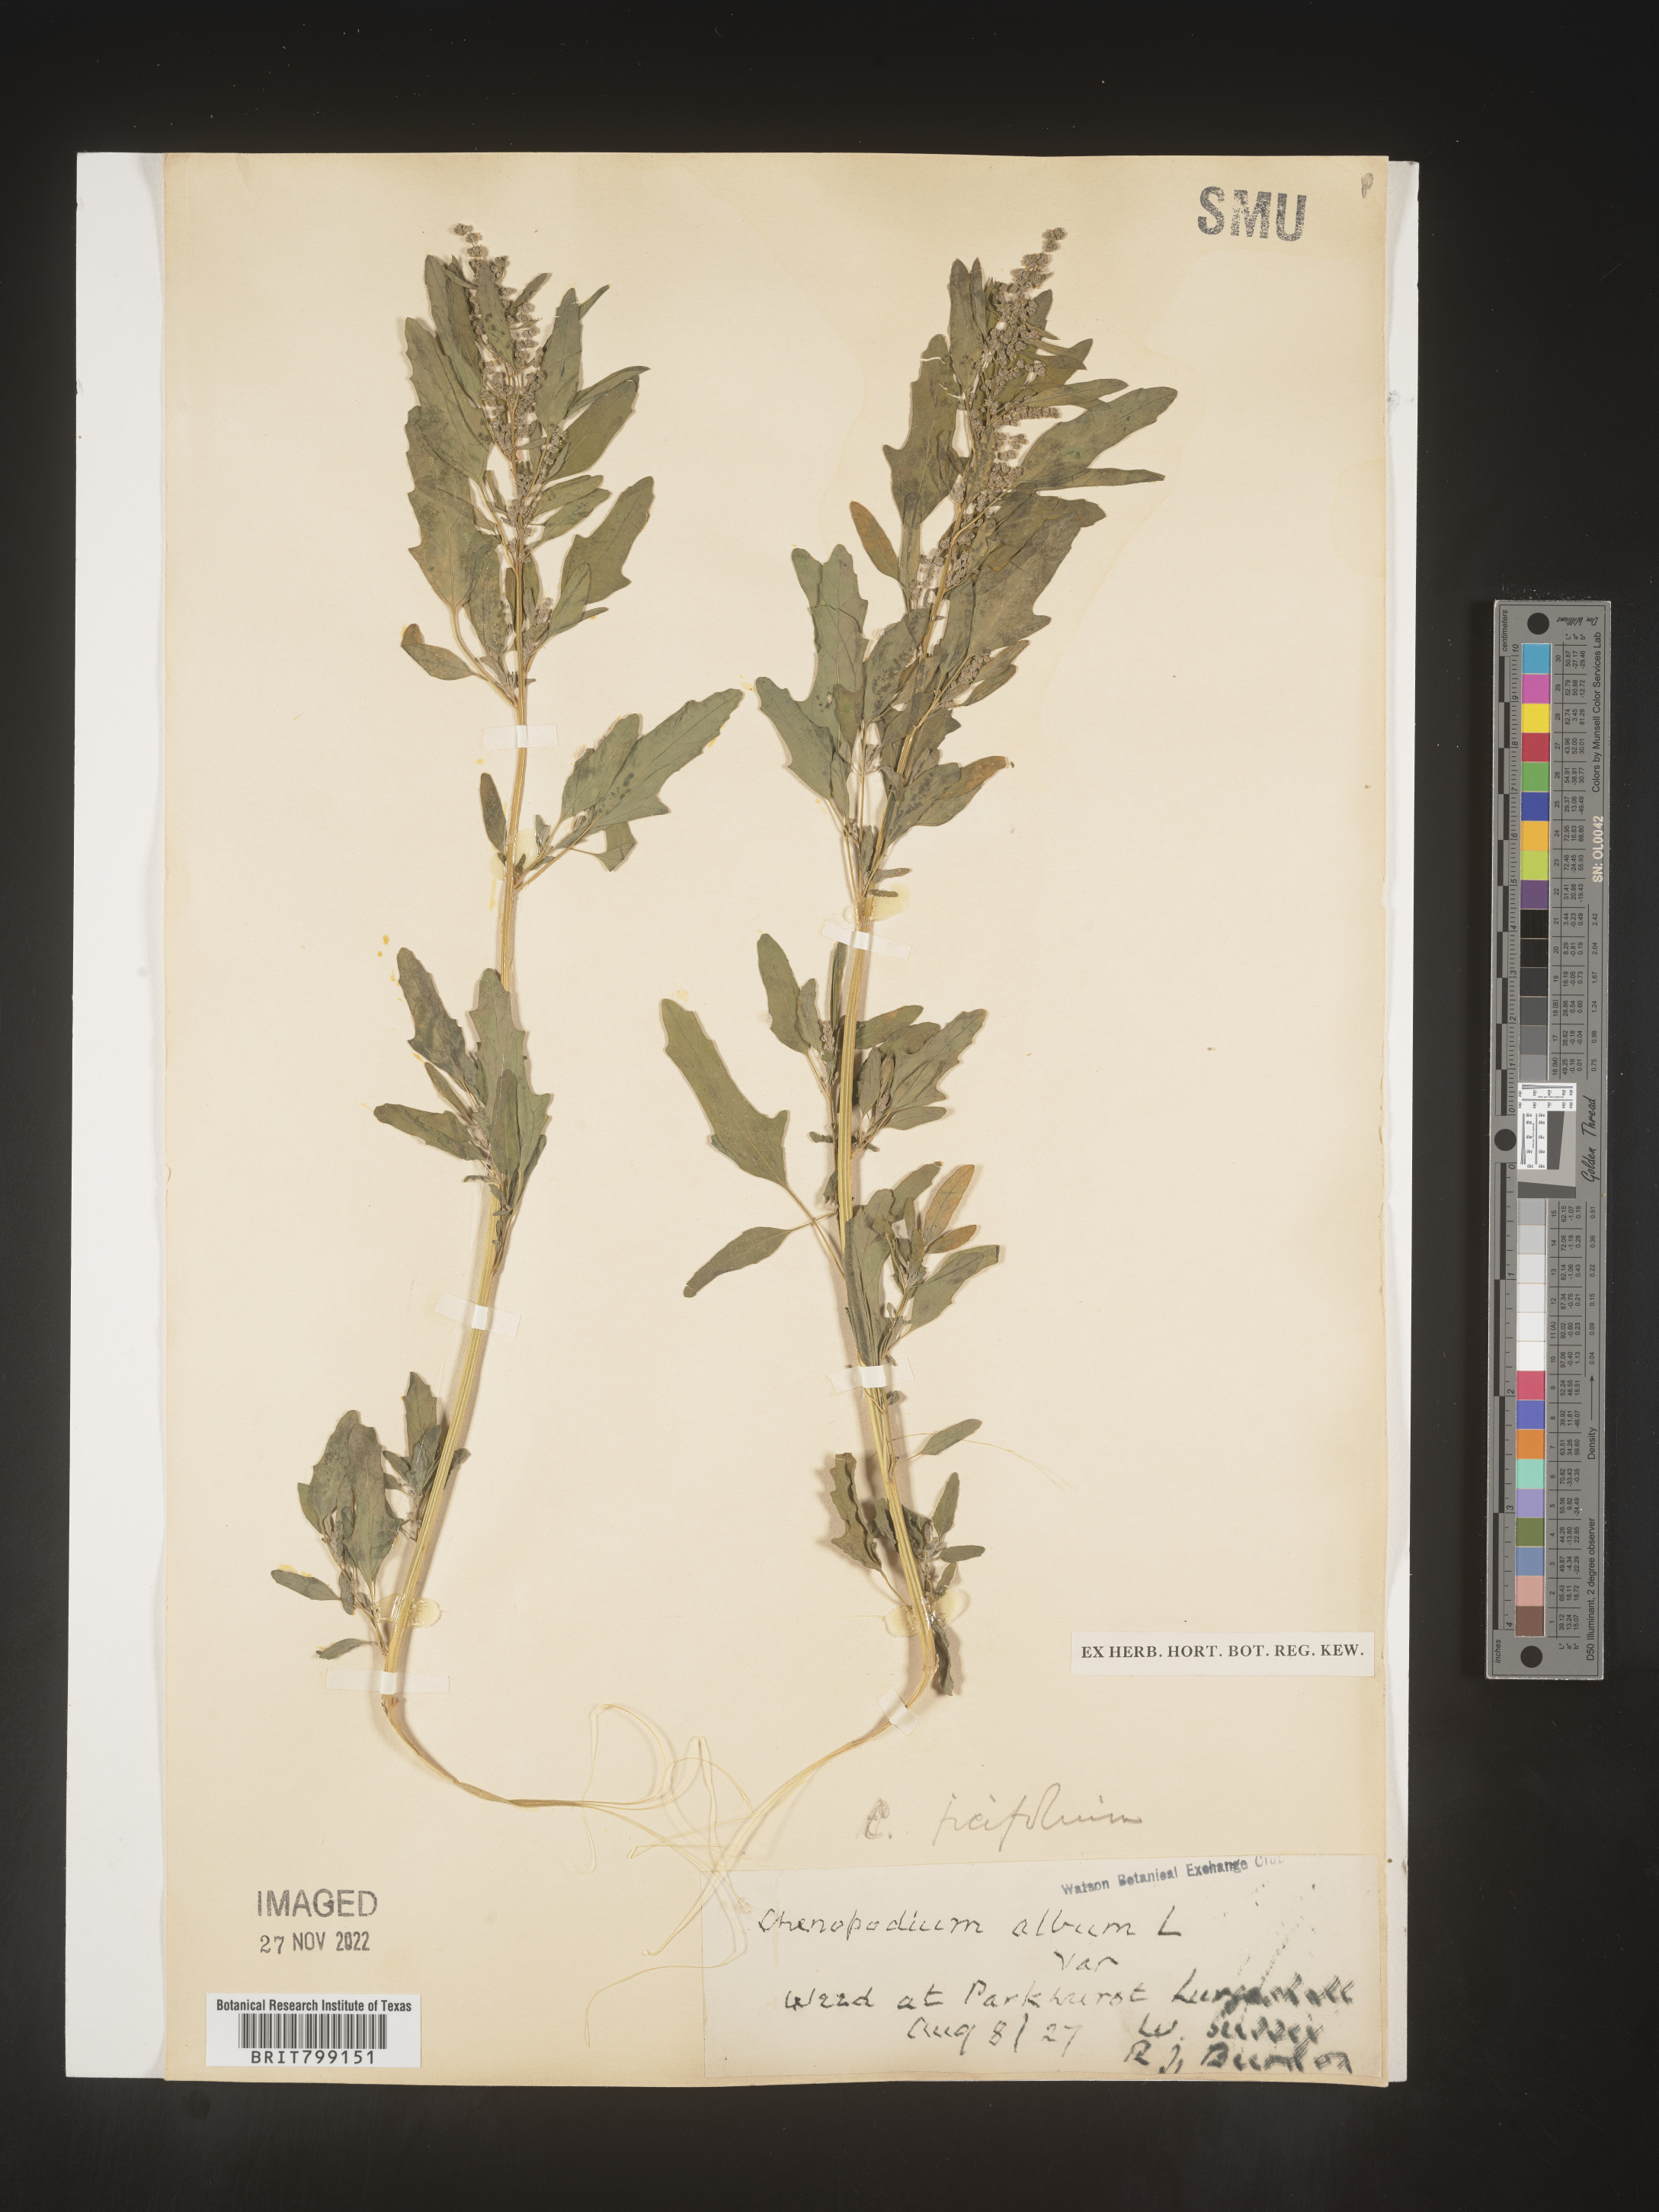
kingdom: Plantae
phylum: Tracheophyta
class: Magnoliopsida
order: Caryophyllales
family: Amaranthaceae
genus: Chenopodium
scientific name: Chenopodium
